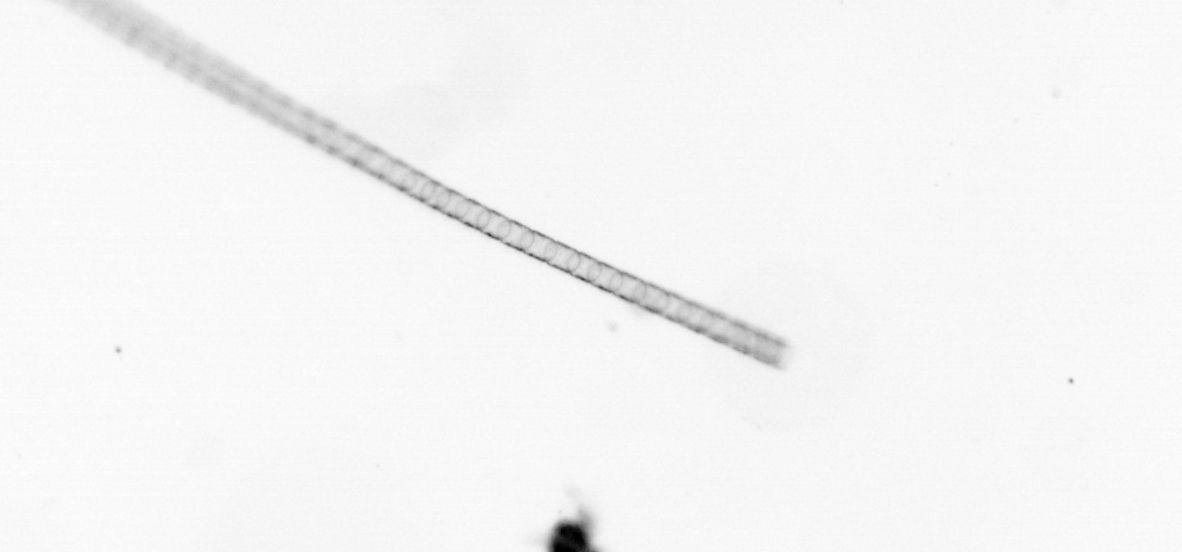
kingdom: Chromista
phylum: Ochrophyta
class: Bacillariophyceae
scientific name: Bacillariophyceae
